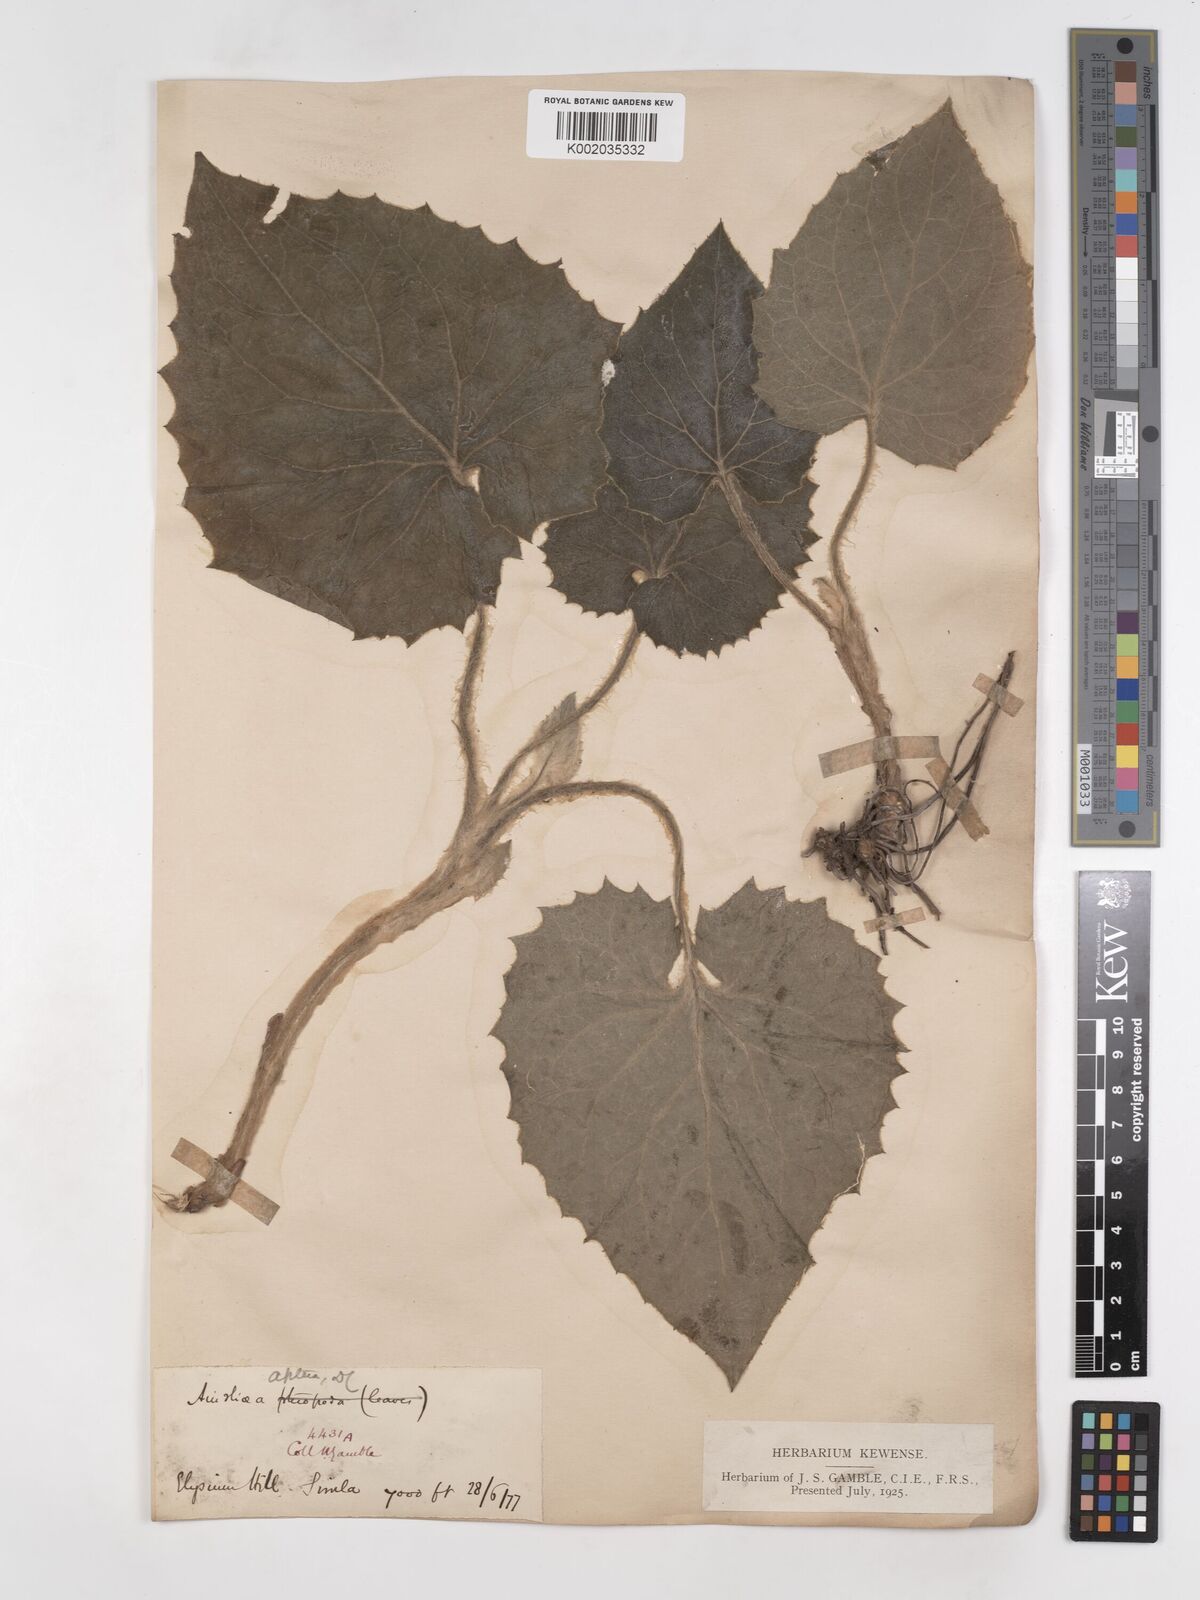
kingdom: Plantae
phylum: Tracheophyta
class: Magnoliopsida
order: Asterales
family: Asteraceae
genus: Ainsliaea
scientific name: Ainsliaea aptera
